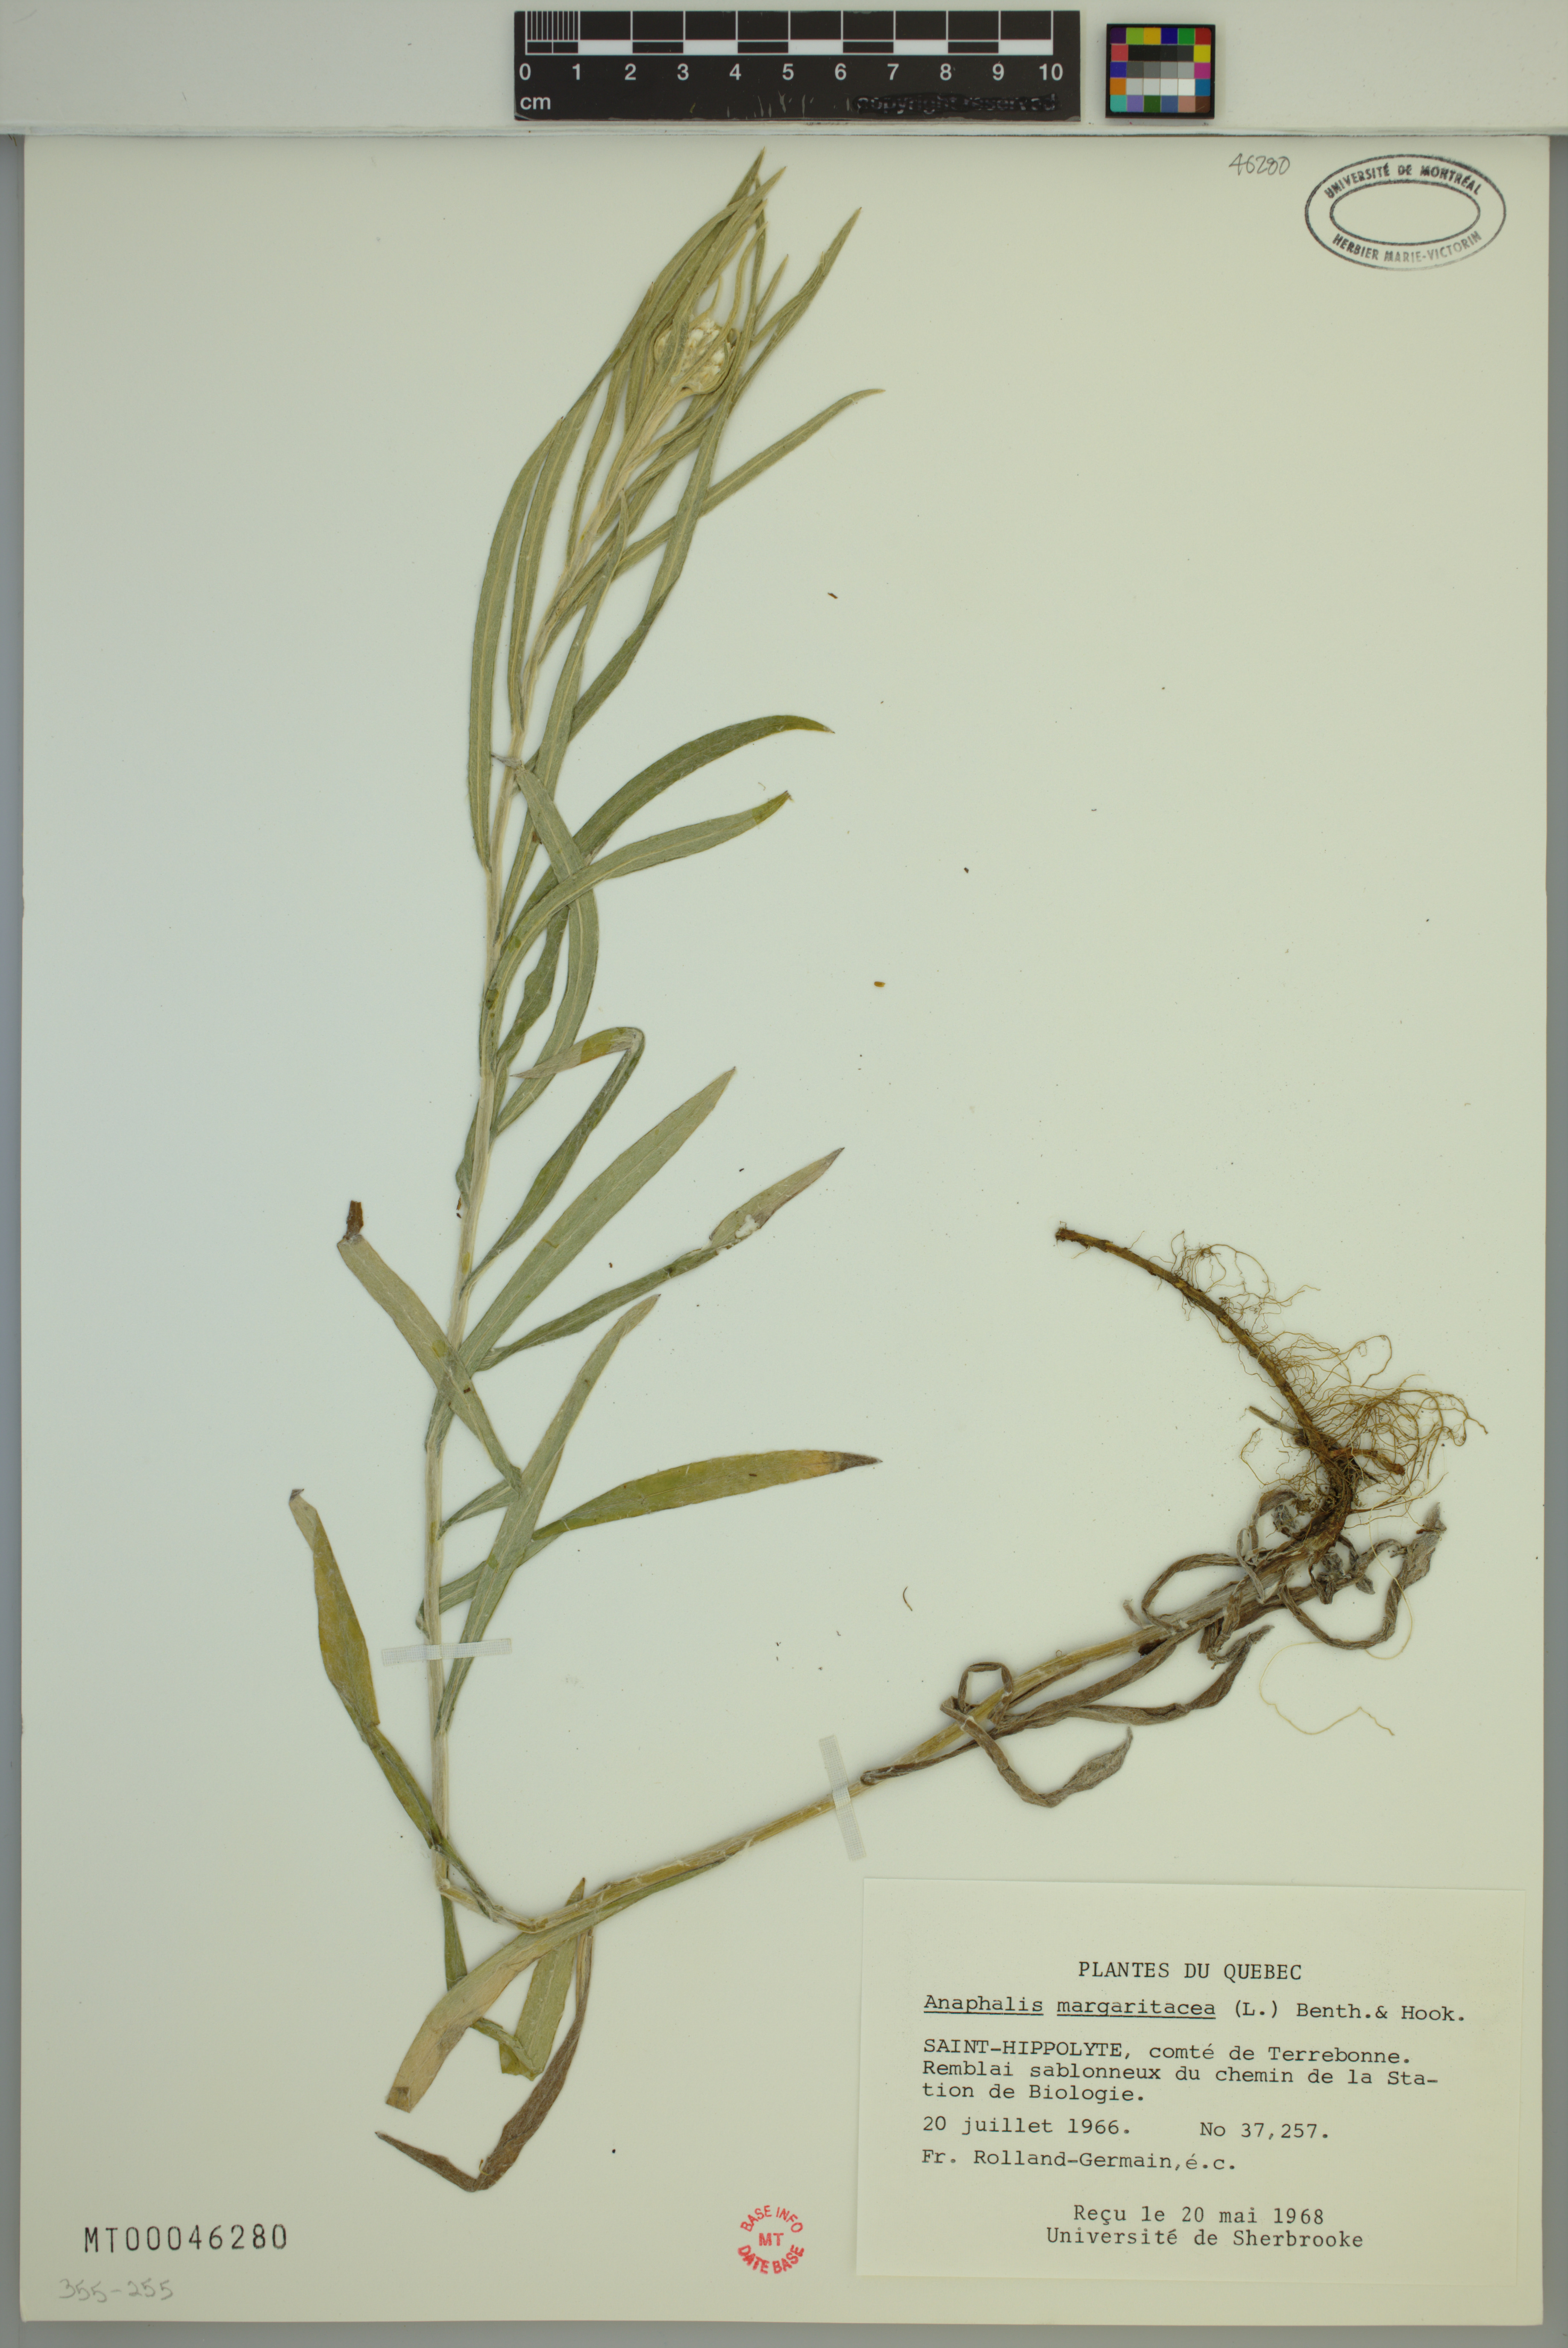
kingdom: Plantae
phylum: Tracheophyta
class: Magnoliopsida
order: Asterales
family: Asteraceae
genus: Anaphalis
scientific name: Anaphalis margaritacea
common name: Pearly everlasting
